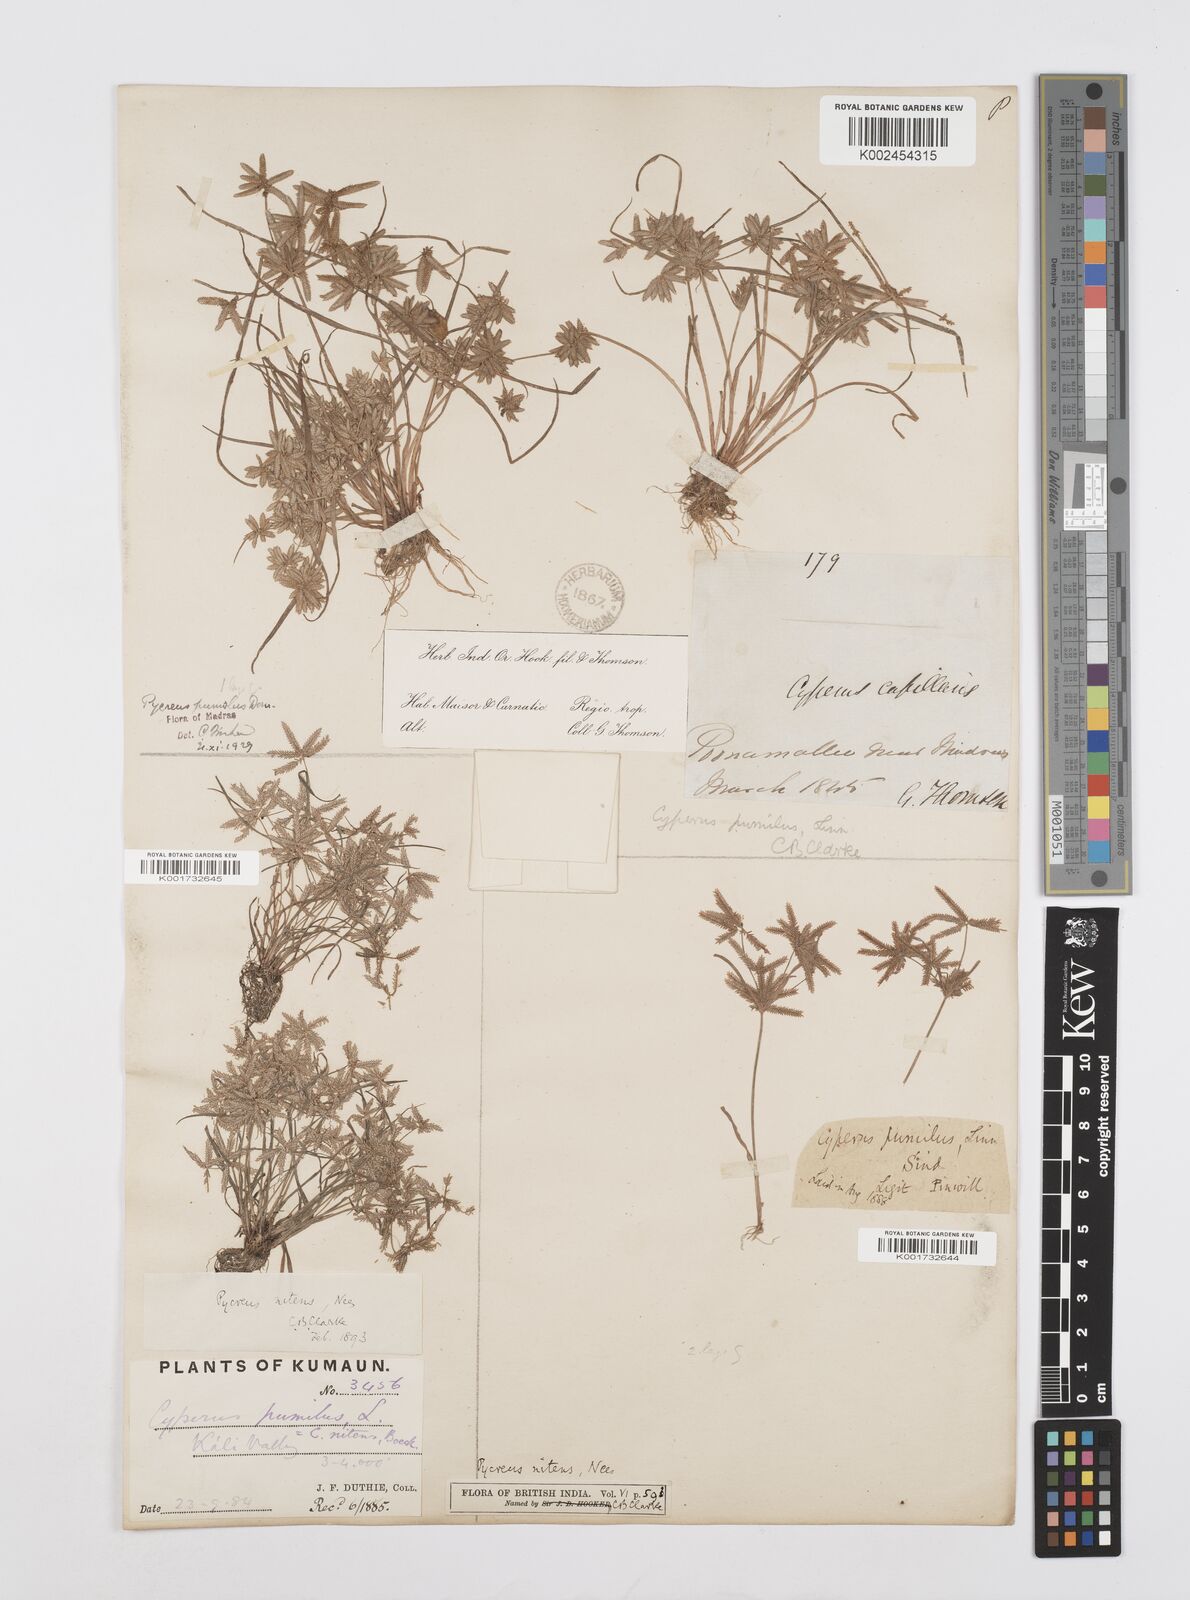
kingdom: Plantae
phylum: Tracheophyta
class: Liliopsida
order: Poales
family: Cyperaceae
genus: Cyperus
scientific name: Cyperus pumilus
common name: Low flatsedge
